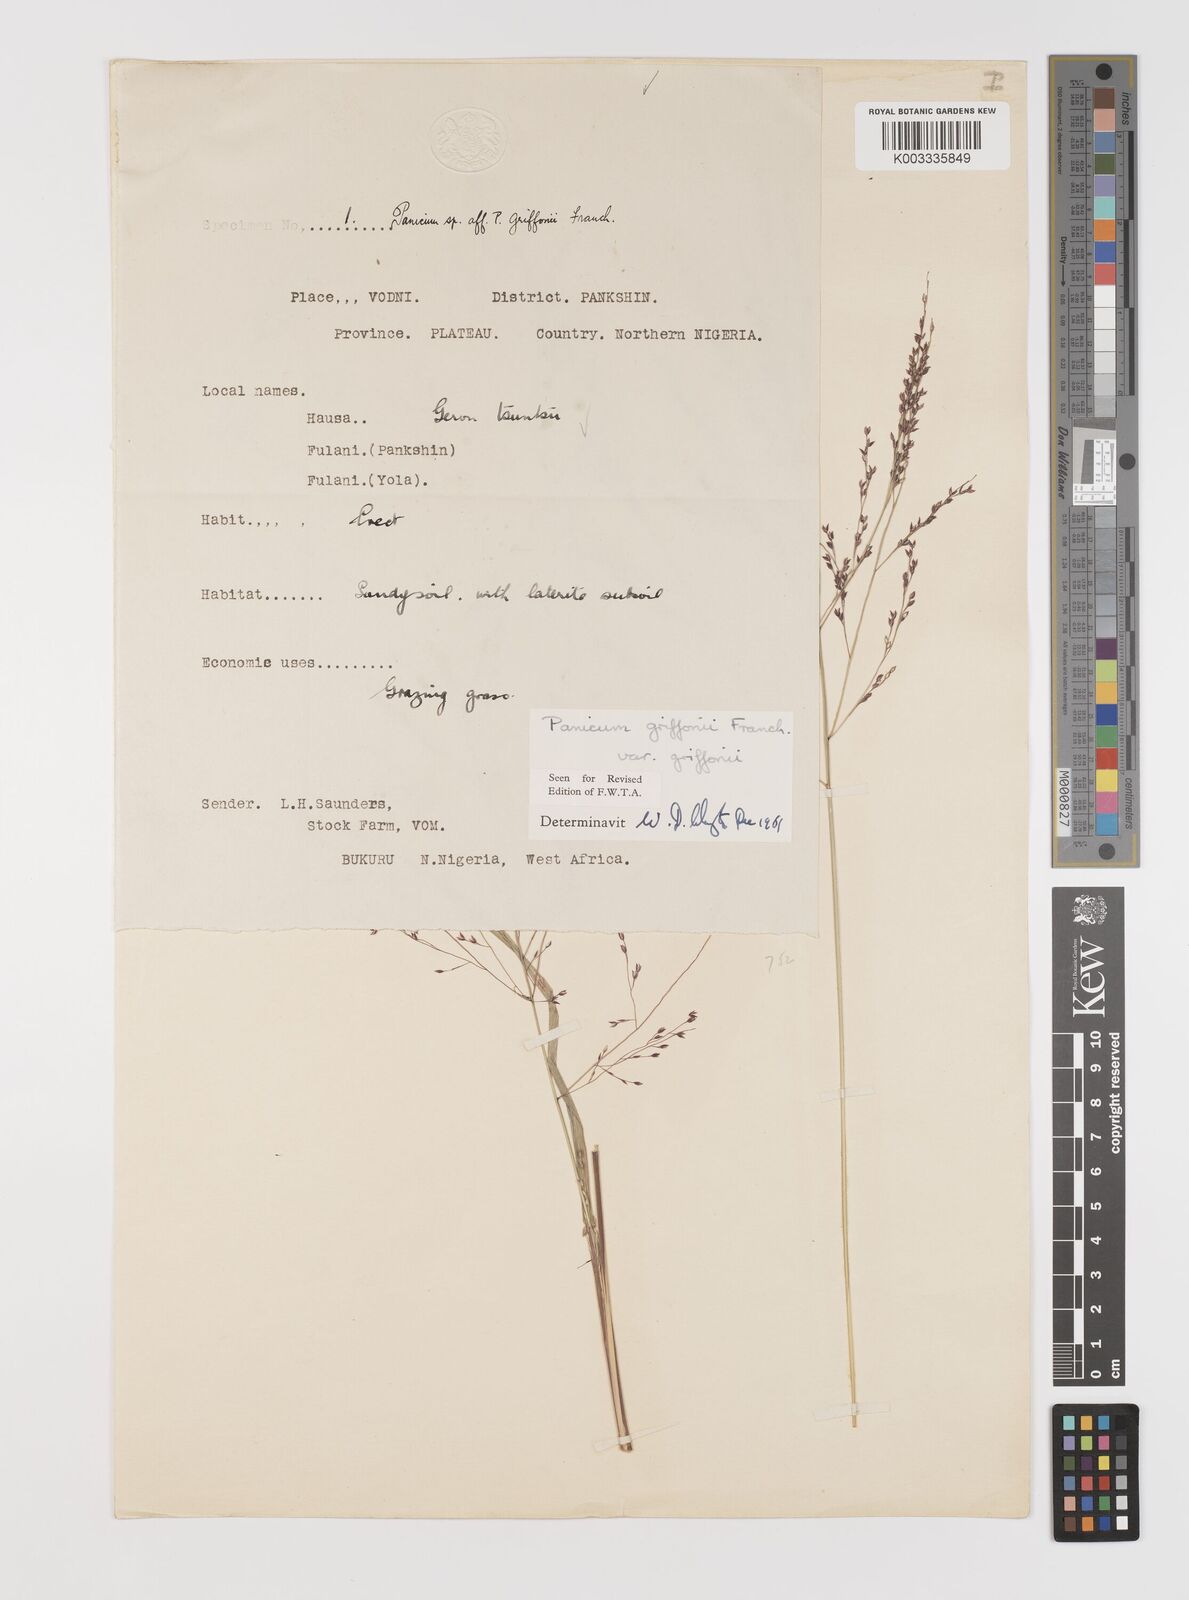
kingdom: Plantae
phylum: Tracheophyta
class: Liliopsida
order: Poales
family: Poaceae
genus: Panicum
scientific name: Panicum griffonii
